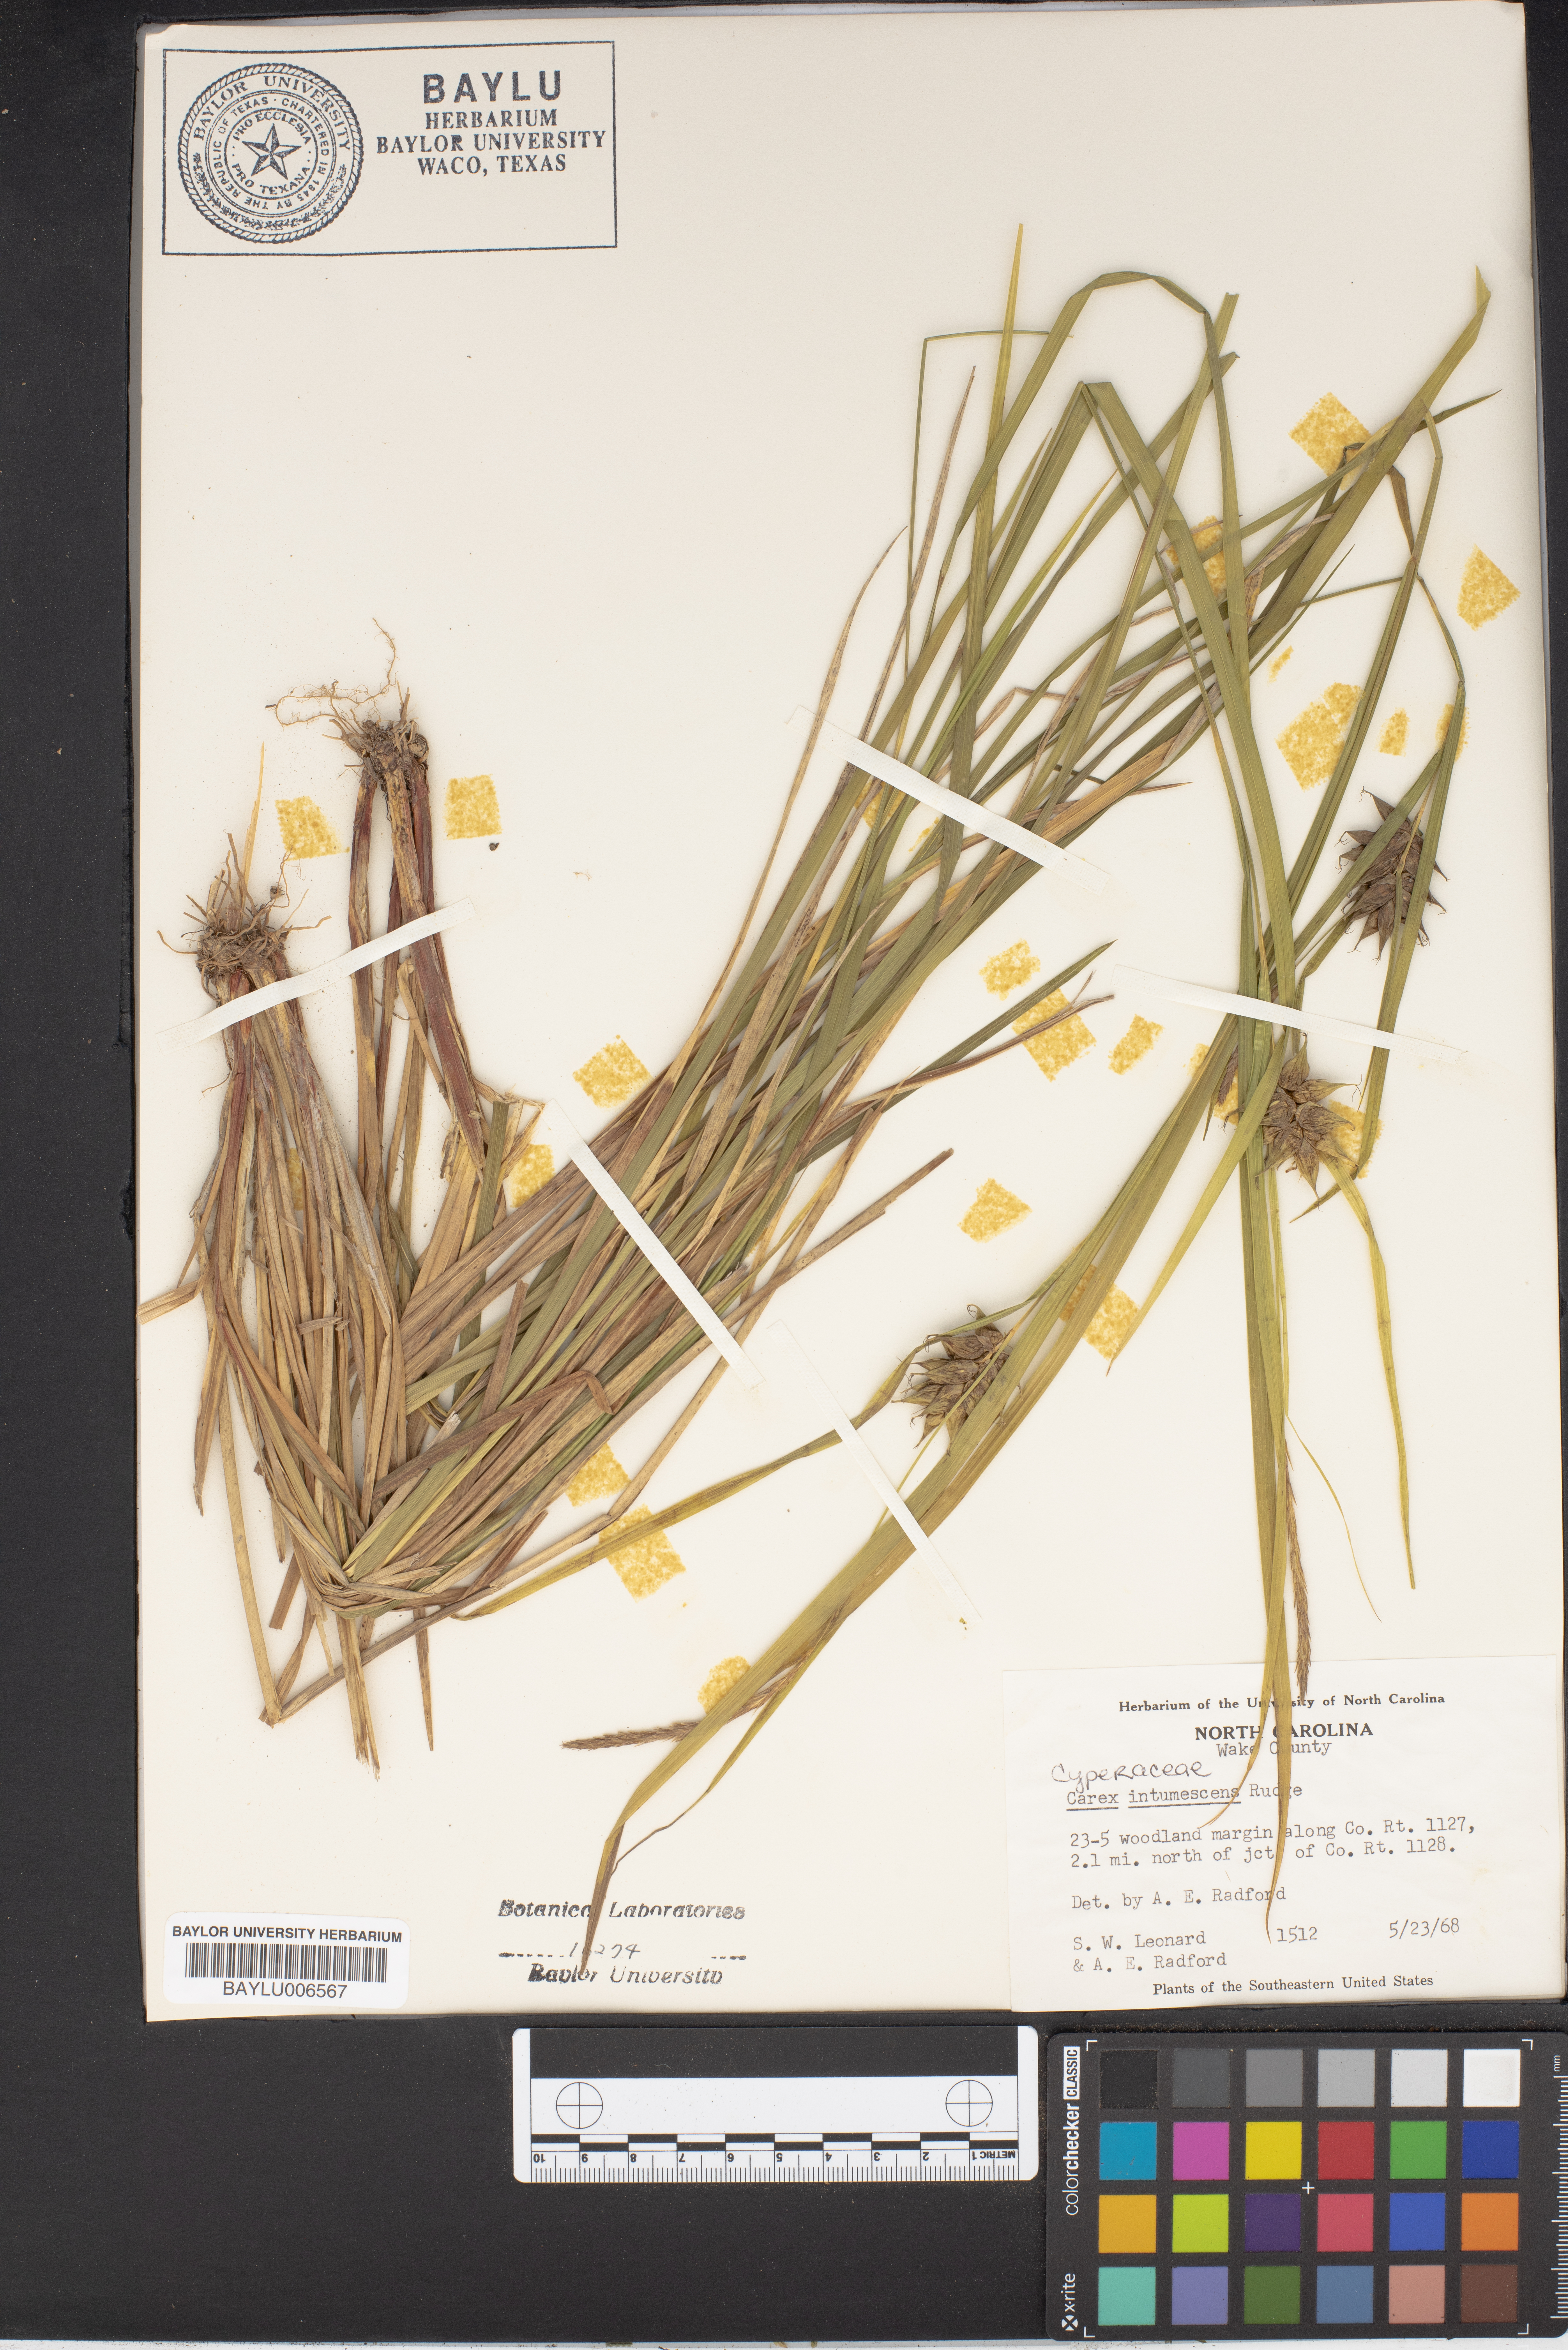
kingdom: Plantae
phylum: Tracheophyta
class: Liliopsida
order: Poales
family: Cyperaceae
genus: Carex
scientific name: Carex intumescens
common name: Greater bladder sedge
